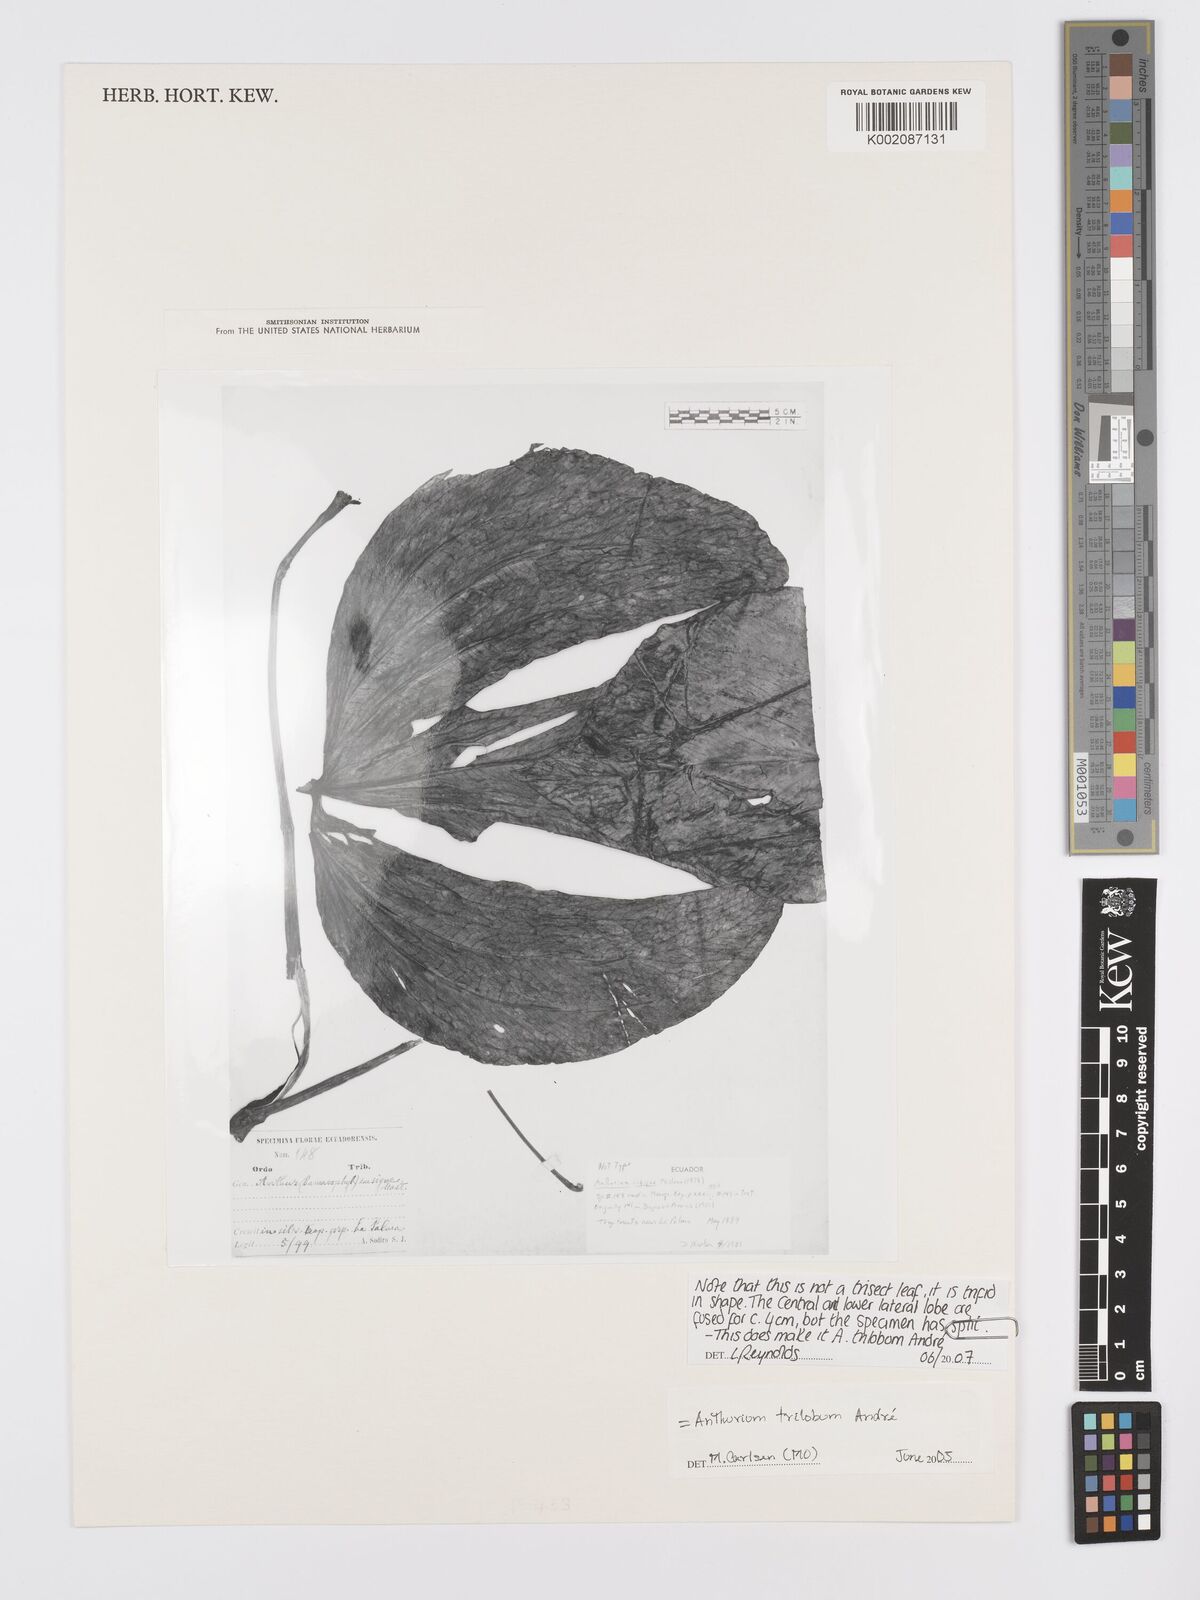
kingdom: Plantae
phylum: Tracheophyta
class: Liliopsida
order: Alismatales
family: Araceae
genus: Anthurium
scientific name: Anthurium
